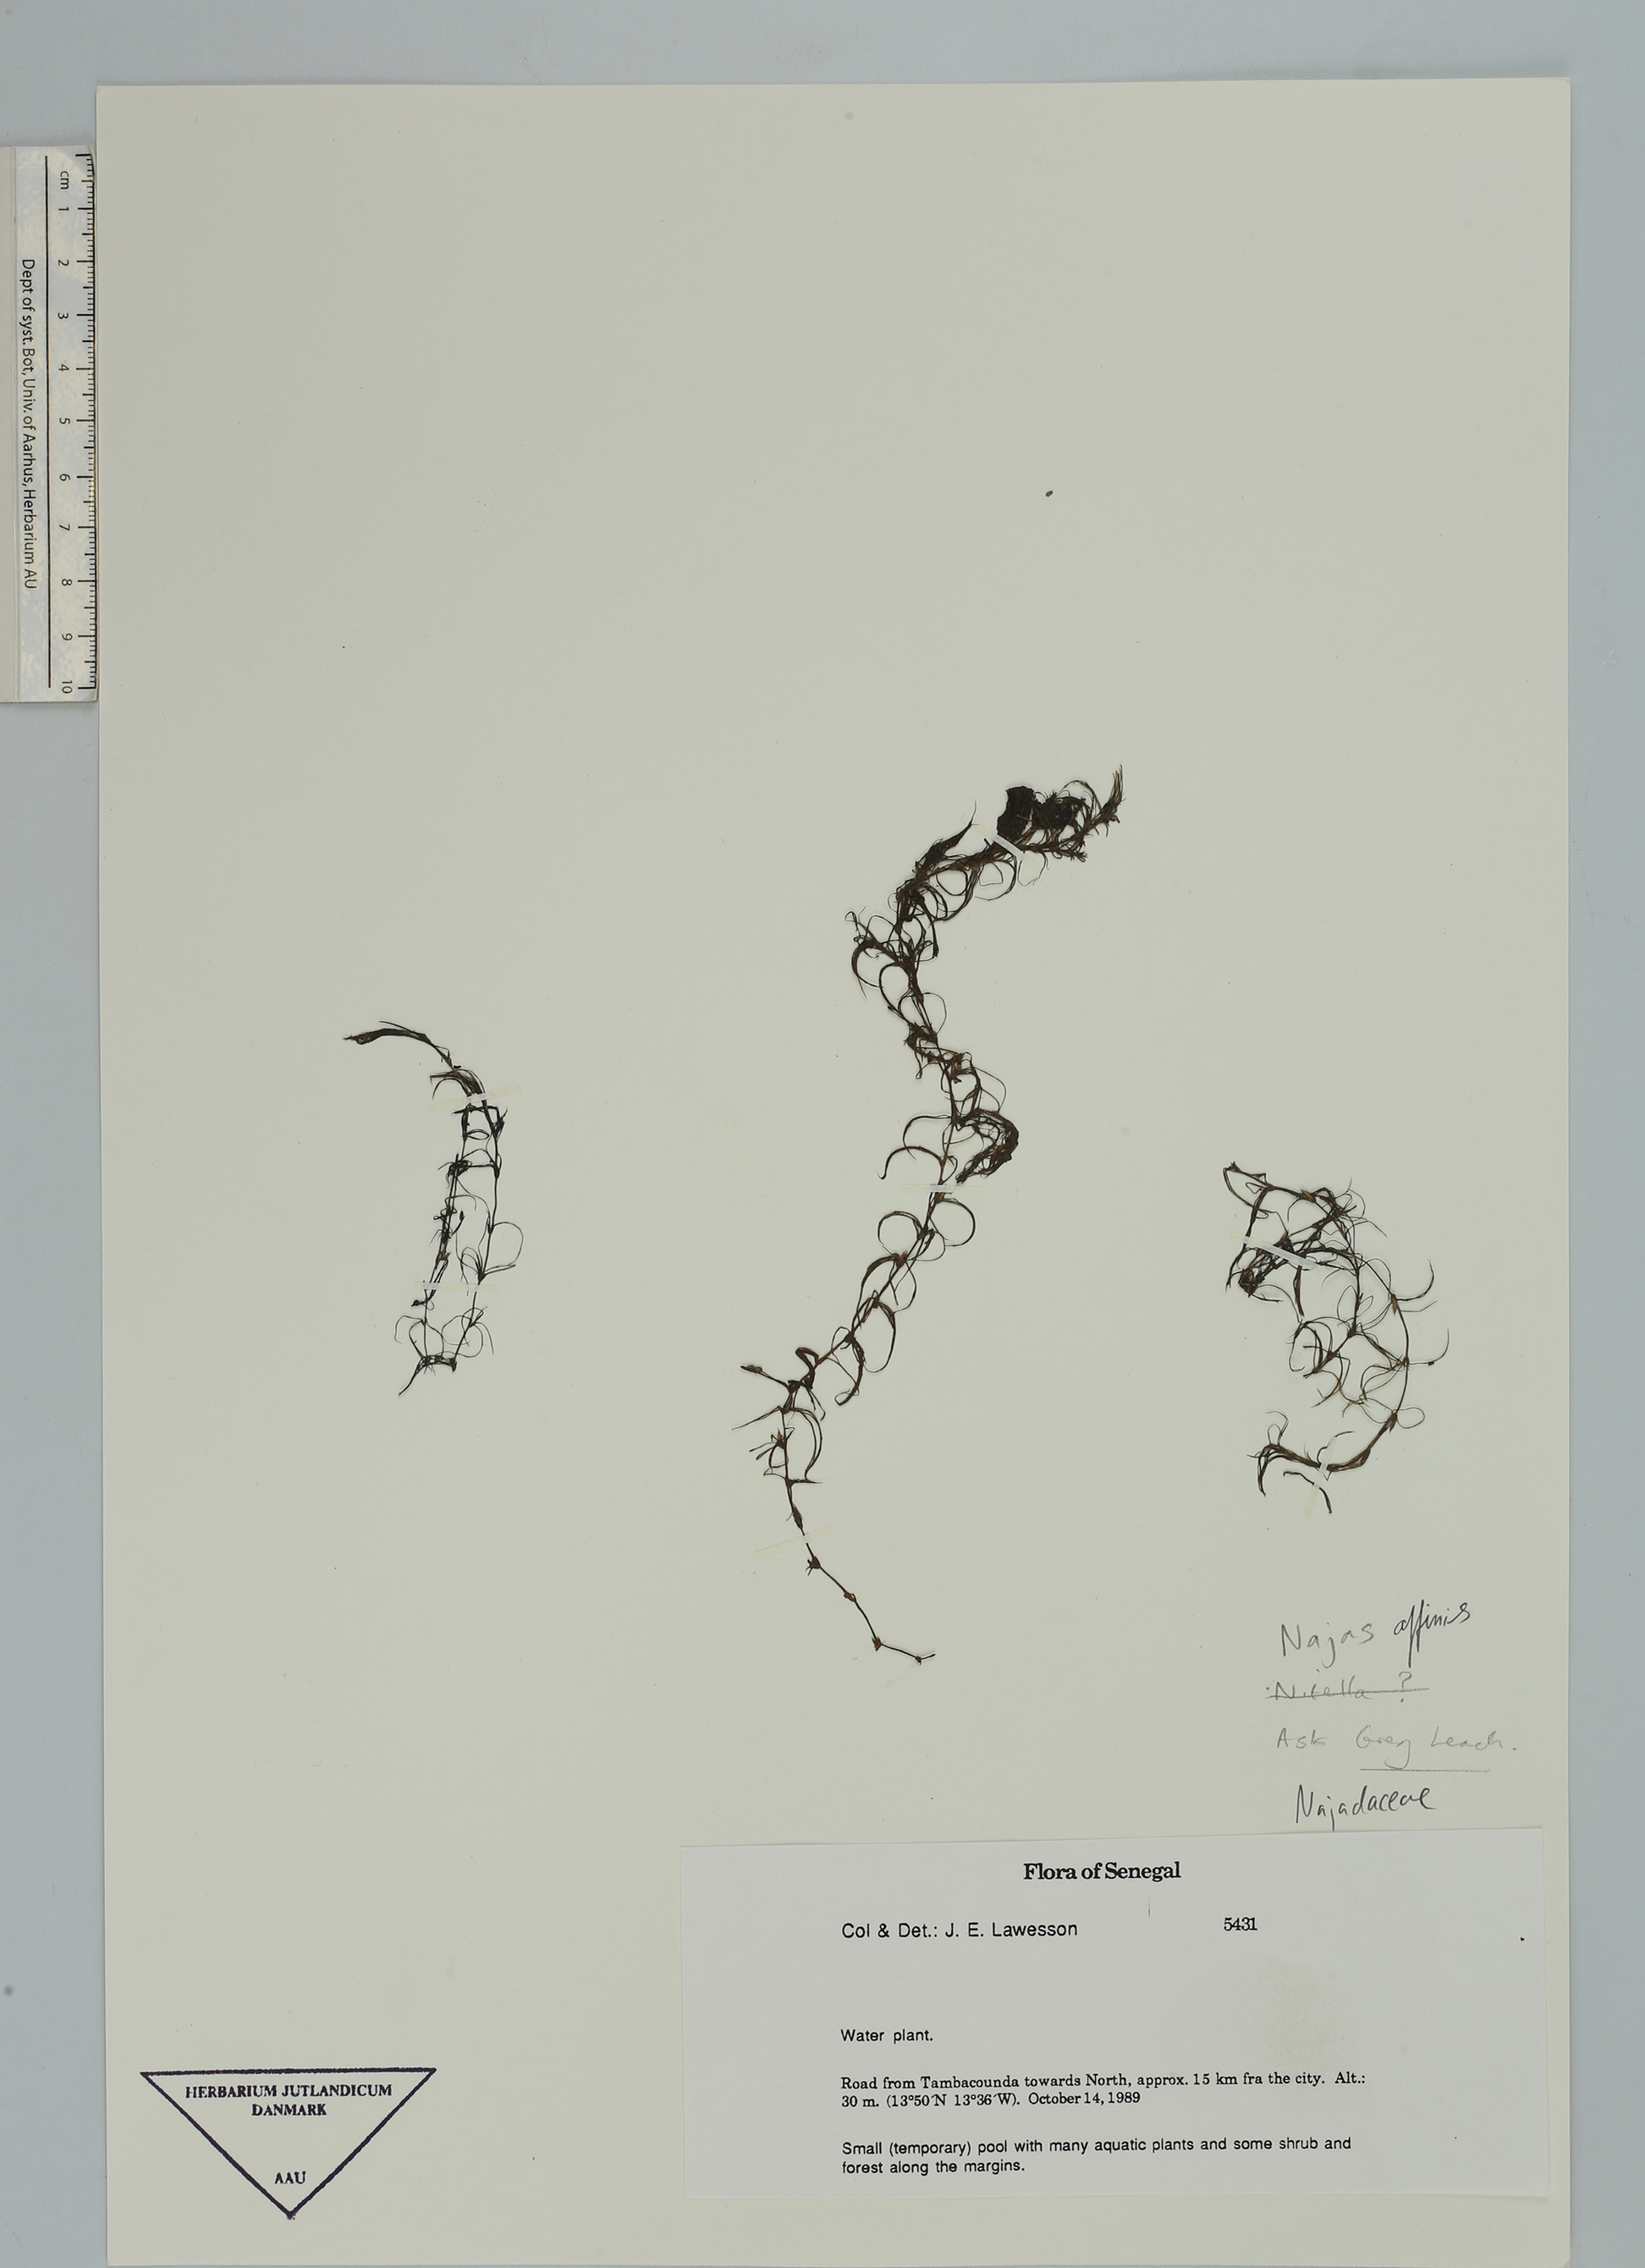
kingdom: Plantae
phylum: Tracheophyta
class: Liliopsida
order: Alismatales
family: Hydrocharitaceae
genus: Najas
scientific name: Najas
